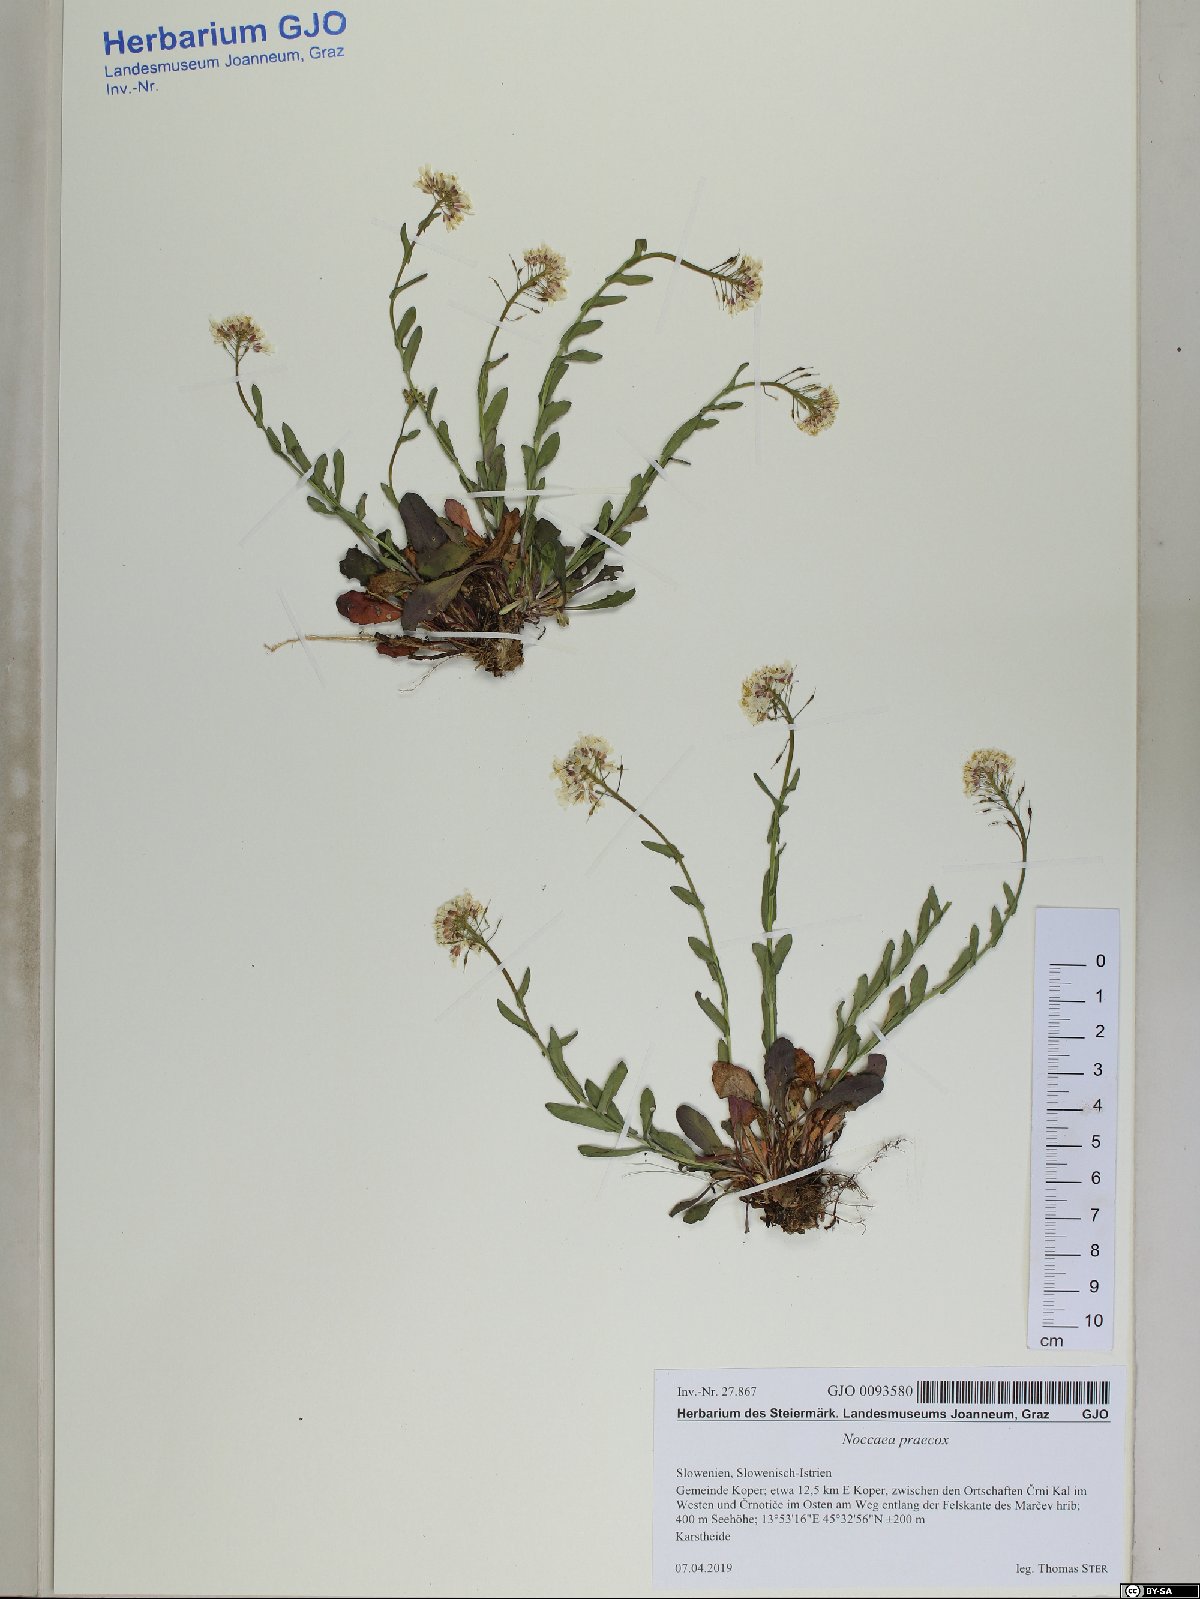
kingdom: Plantae
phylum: Tracheophyta
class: Magnoliopsida
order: Brassicales
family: Brassicaceae
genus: Noccaea
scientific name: Noccaea praecox
